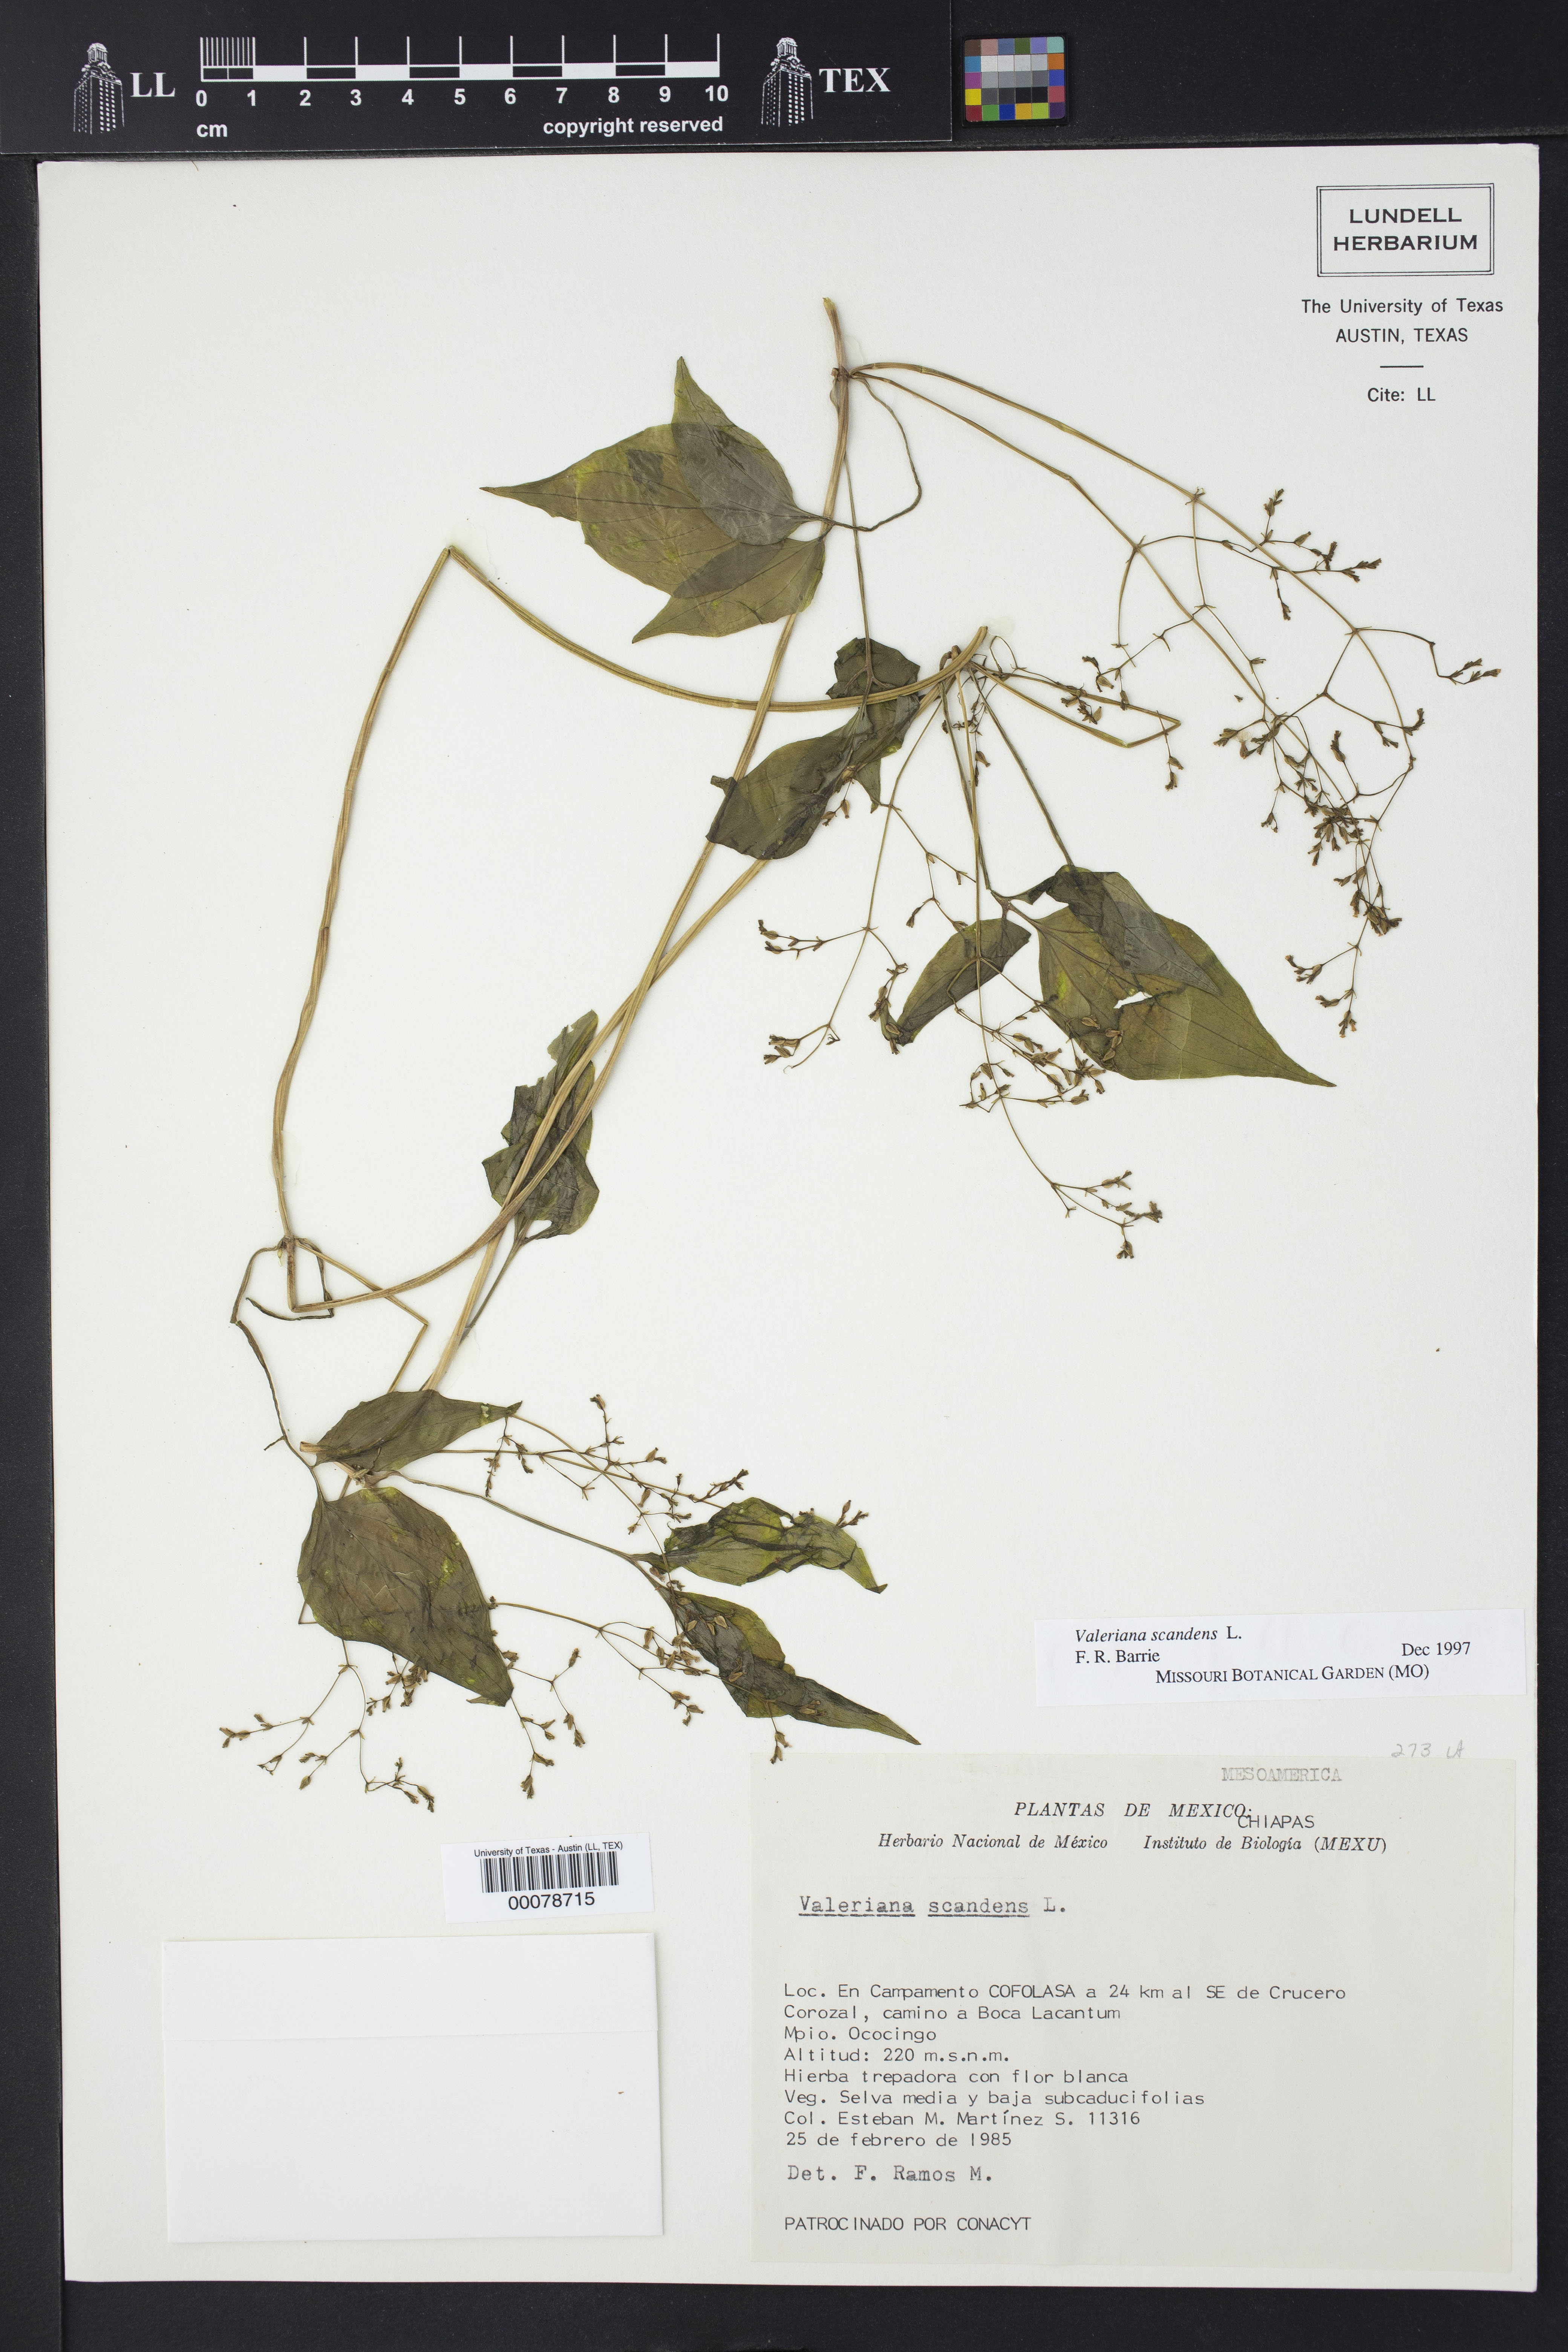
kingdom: Plantae
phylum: Tracheophyta
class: Magnoliopsida
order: Dipsacales
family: Caprifoliaceae
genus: Valeriana
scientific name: Valeriana scandens
